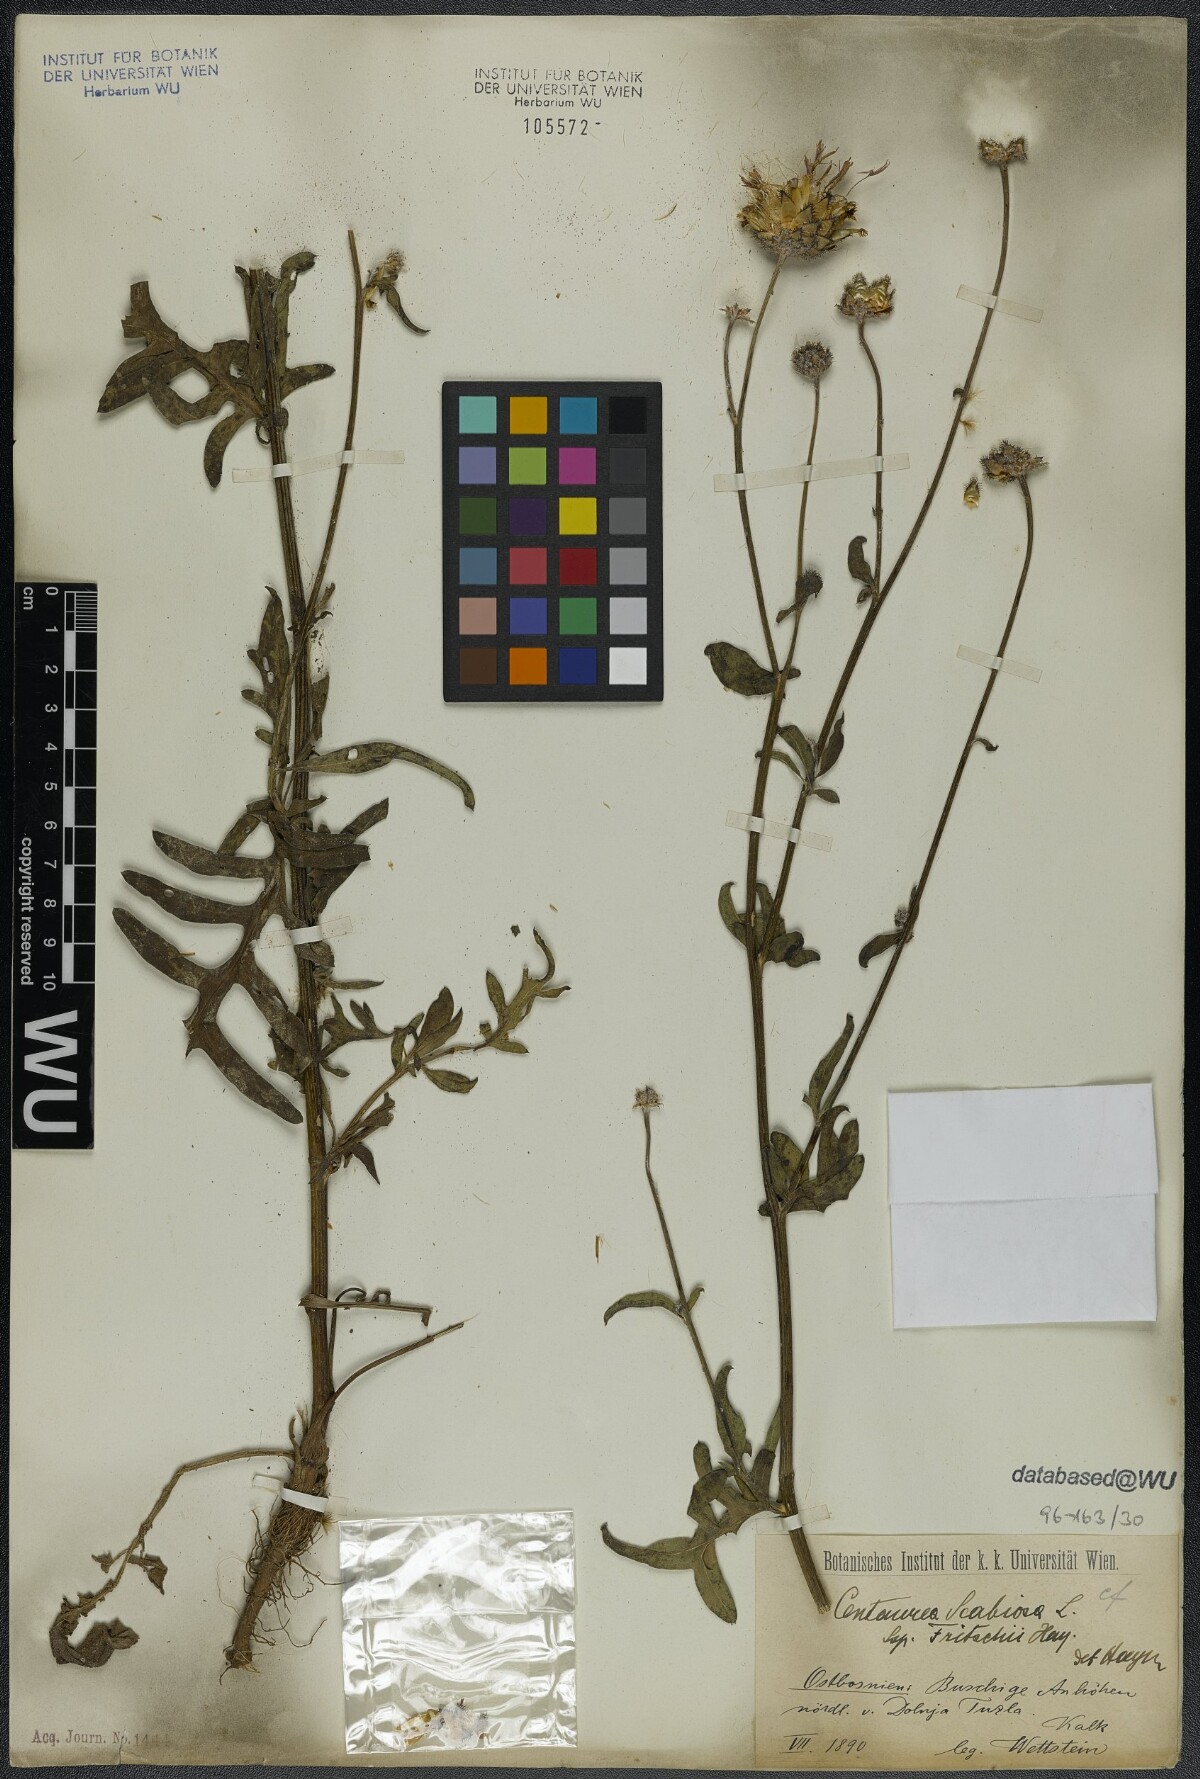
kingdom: Plantae
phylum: Tracheophyta
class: Magnoliopsida
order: Asterales
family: Asteraceae
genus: Centaurea
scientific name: Centaurea scabiosa
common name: Greater knapweed
